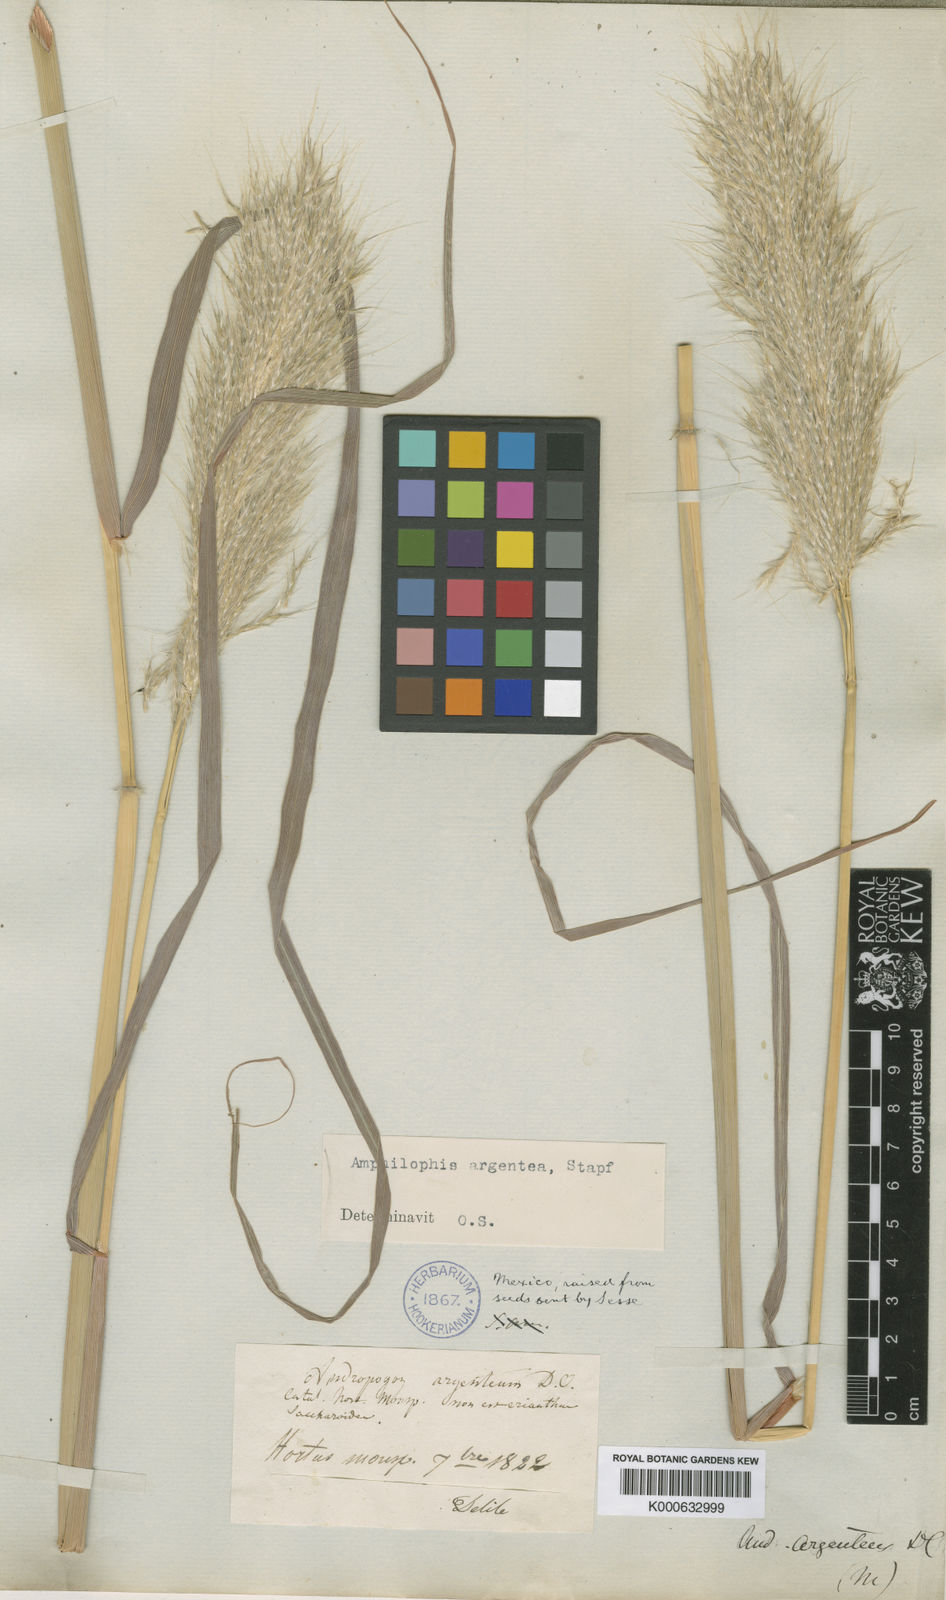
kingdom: Plantae
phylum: Tracheophyta
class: Liliopsida
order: Poales
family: Poaceae
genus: Bothriochloa
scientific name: Bothriochloa alta
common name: Tall bluestem
